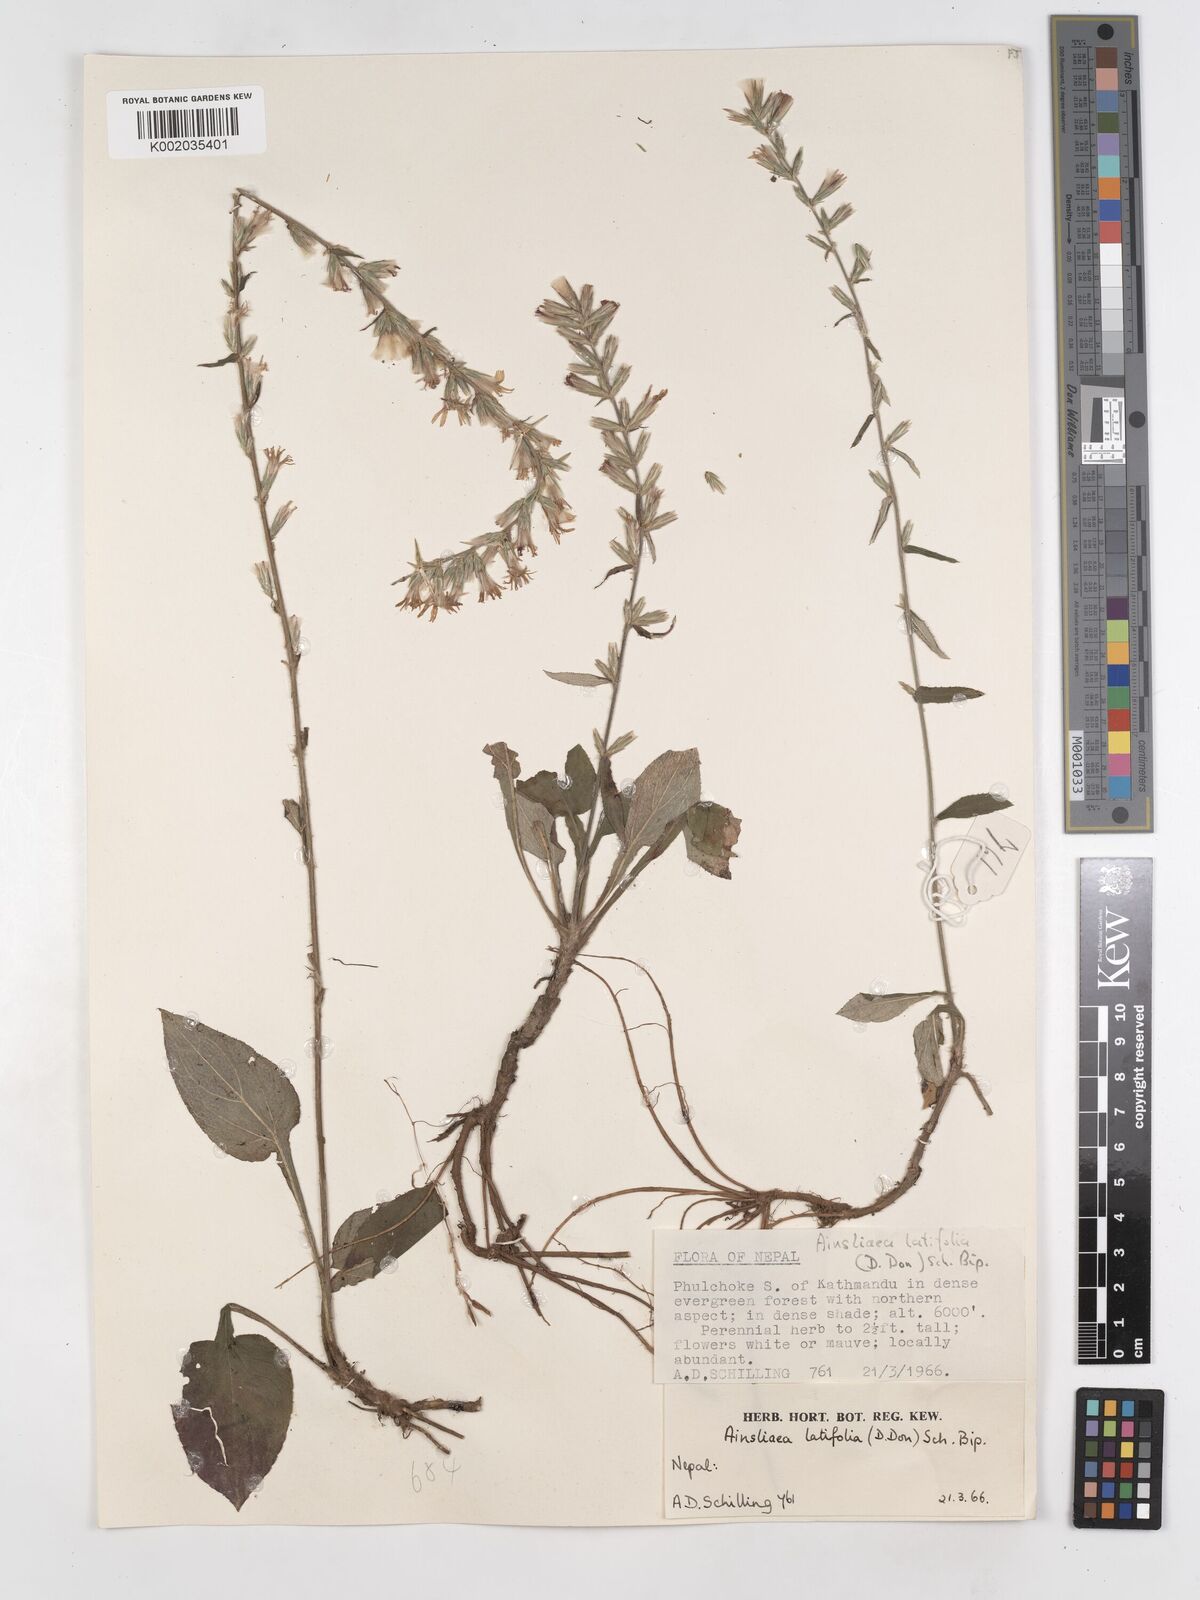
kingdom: Plantae
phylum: Tracheophyta
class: Magnoliopsida
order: Asterales
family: Asteraceae
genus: Ainsliaea
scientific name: Ainsliaea latifolia
